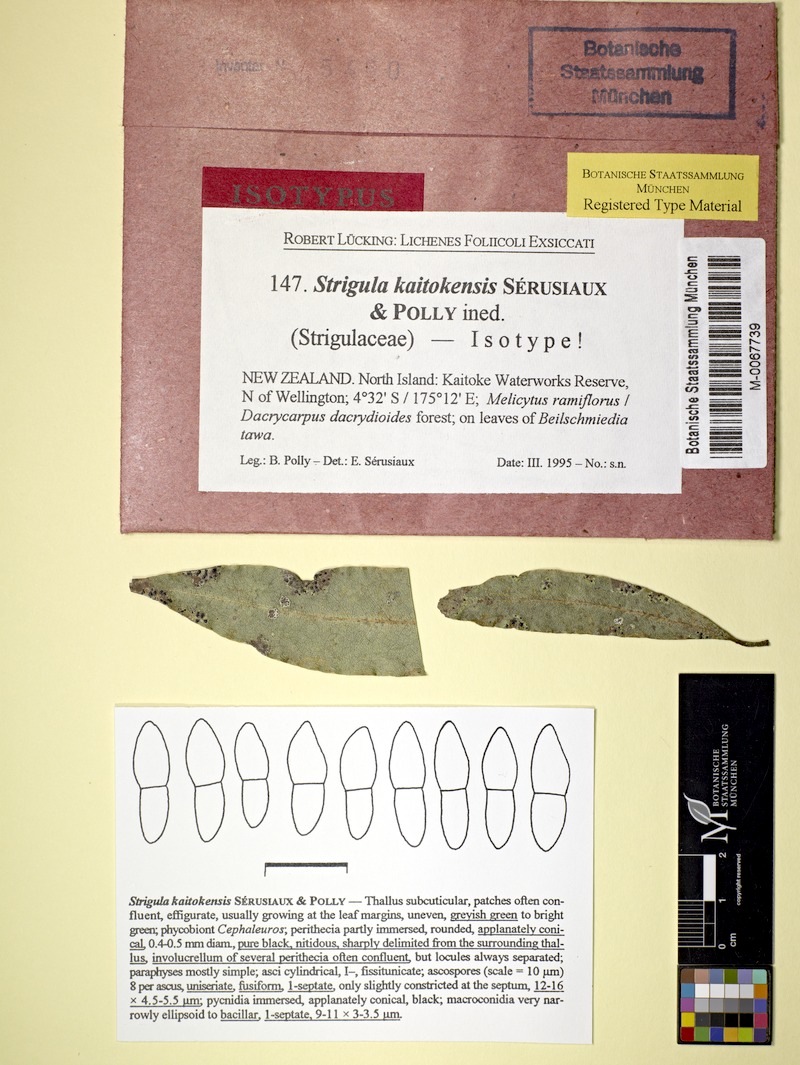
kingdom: Fungi
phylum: Ascomycota
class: Dothideomycetes
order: Strigulales
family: Strigulaceae
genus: Strigula
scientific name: Strigula
